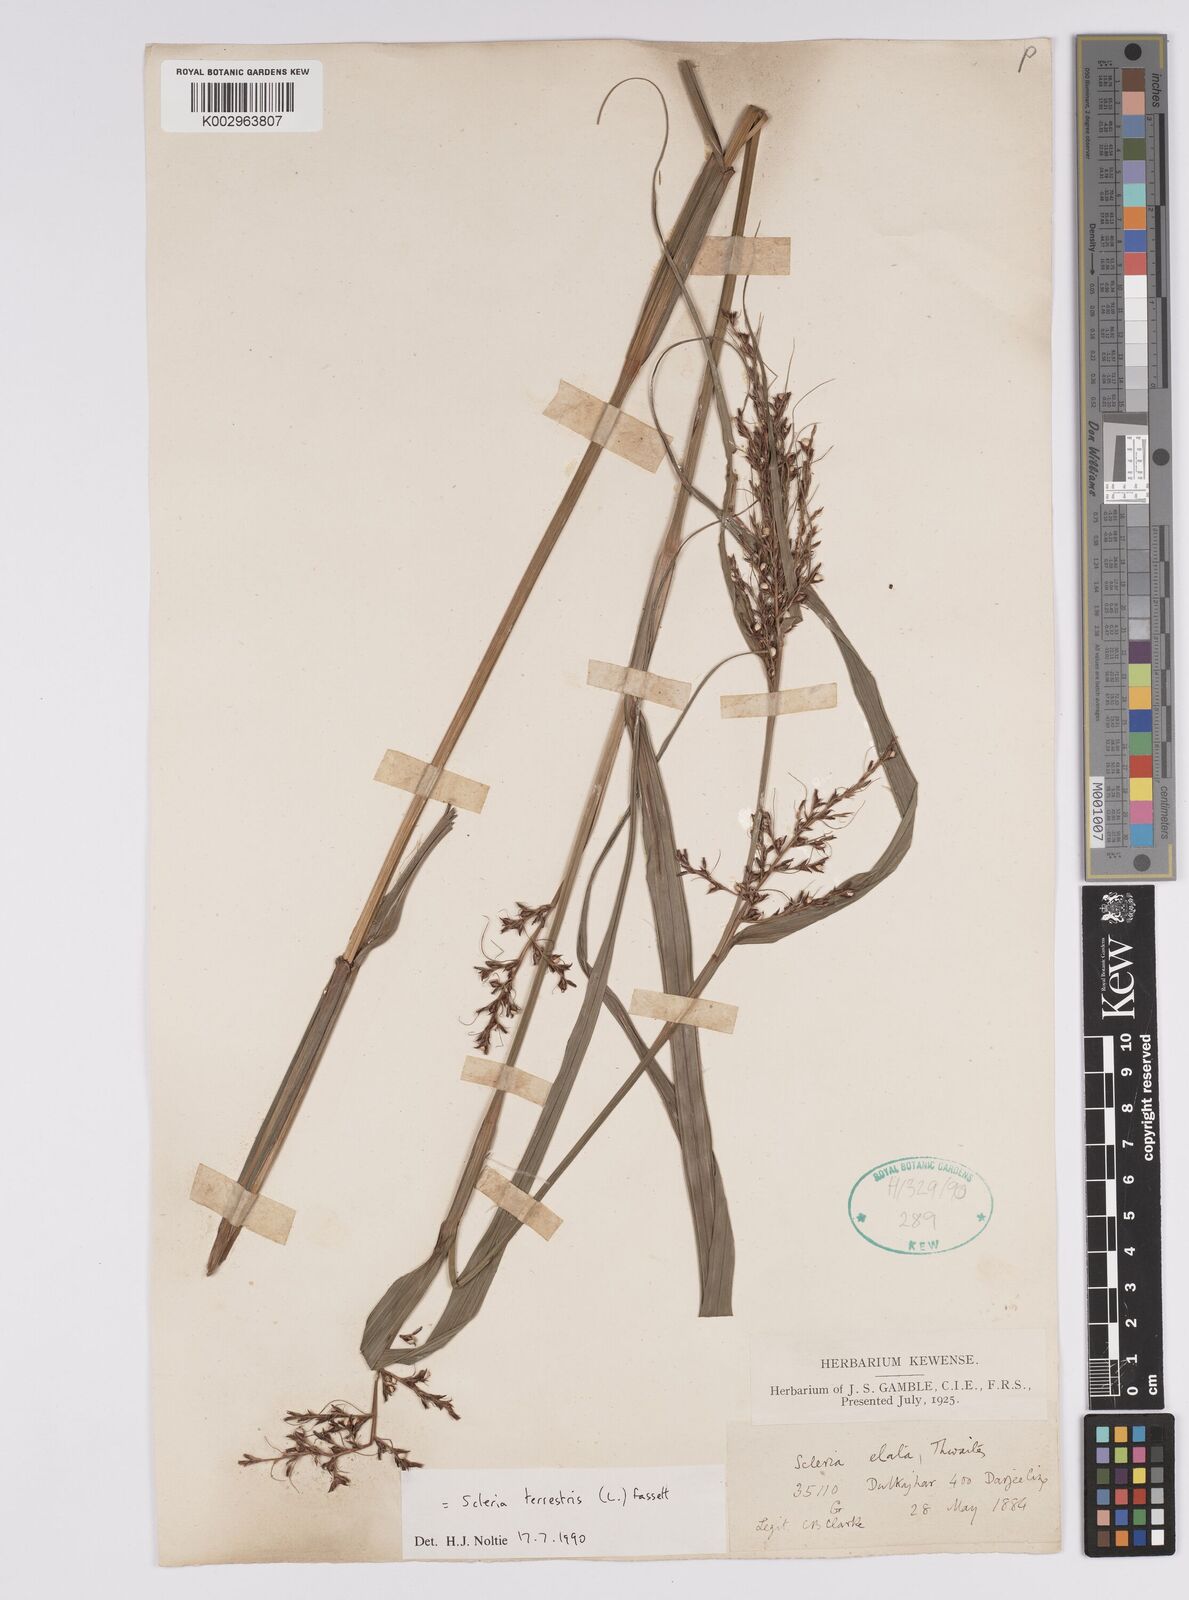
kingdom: Plantae
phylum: Tracheophyta
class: Liliopsida
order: Poales
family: Cyperaceae
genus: Scleria
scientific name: Scleria terrestris
